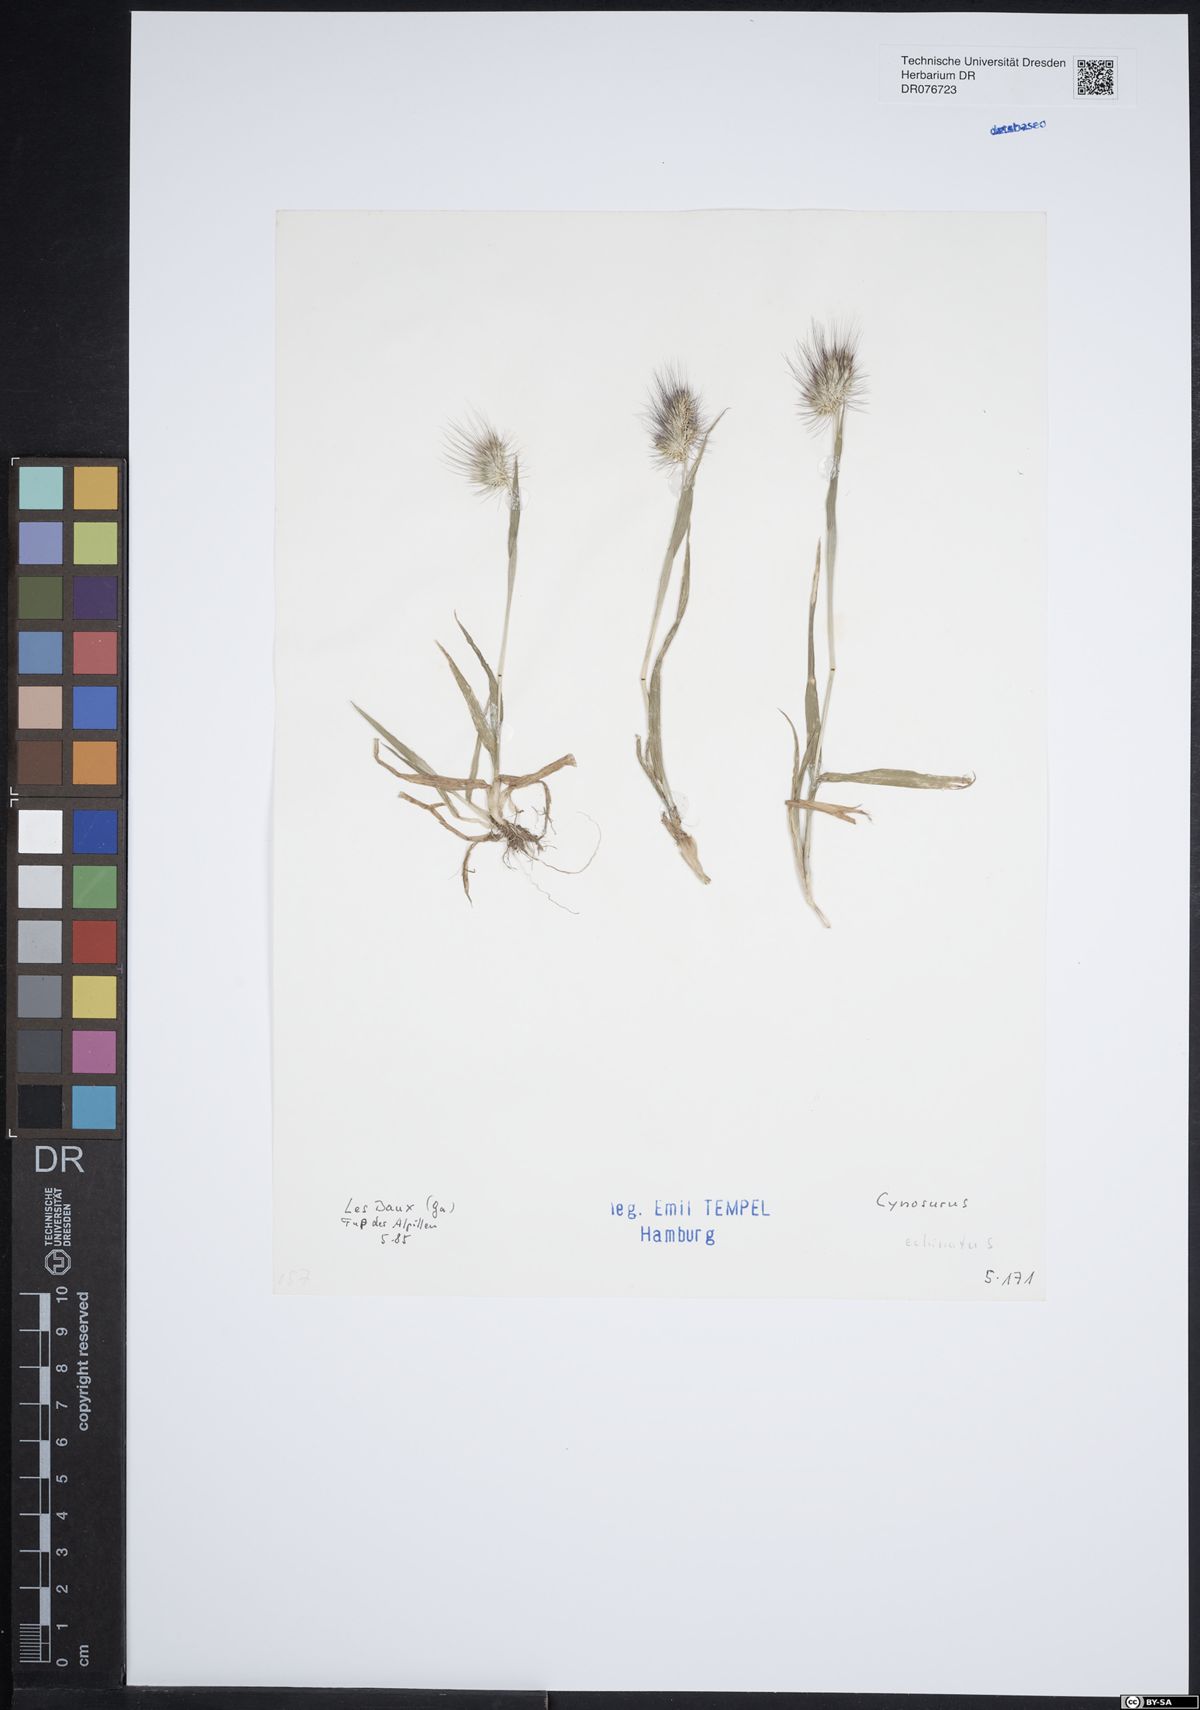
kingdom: Plantae
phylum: Tracheophyta
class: Liliopsida
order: Poales
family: Poaceae
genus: Cynosurus
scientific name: Cynosurus echinatus
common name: Rough dog's-tail
